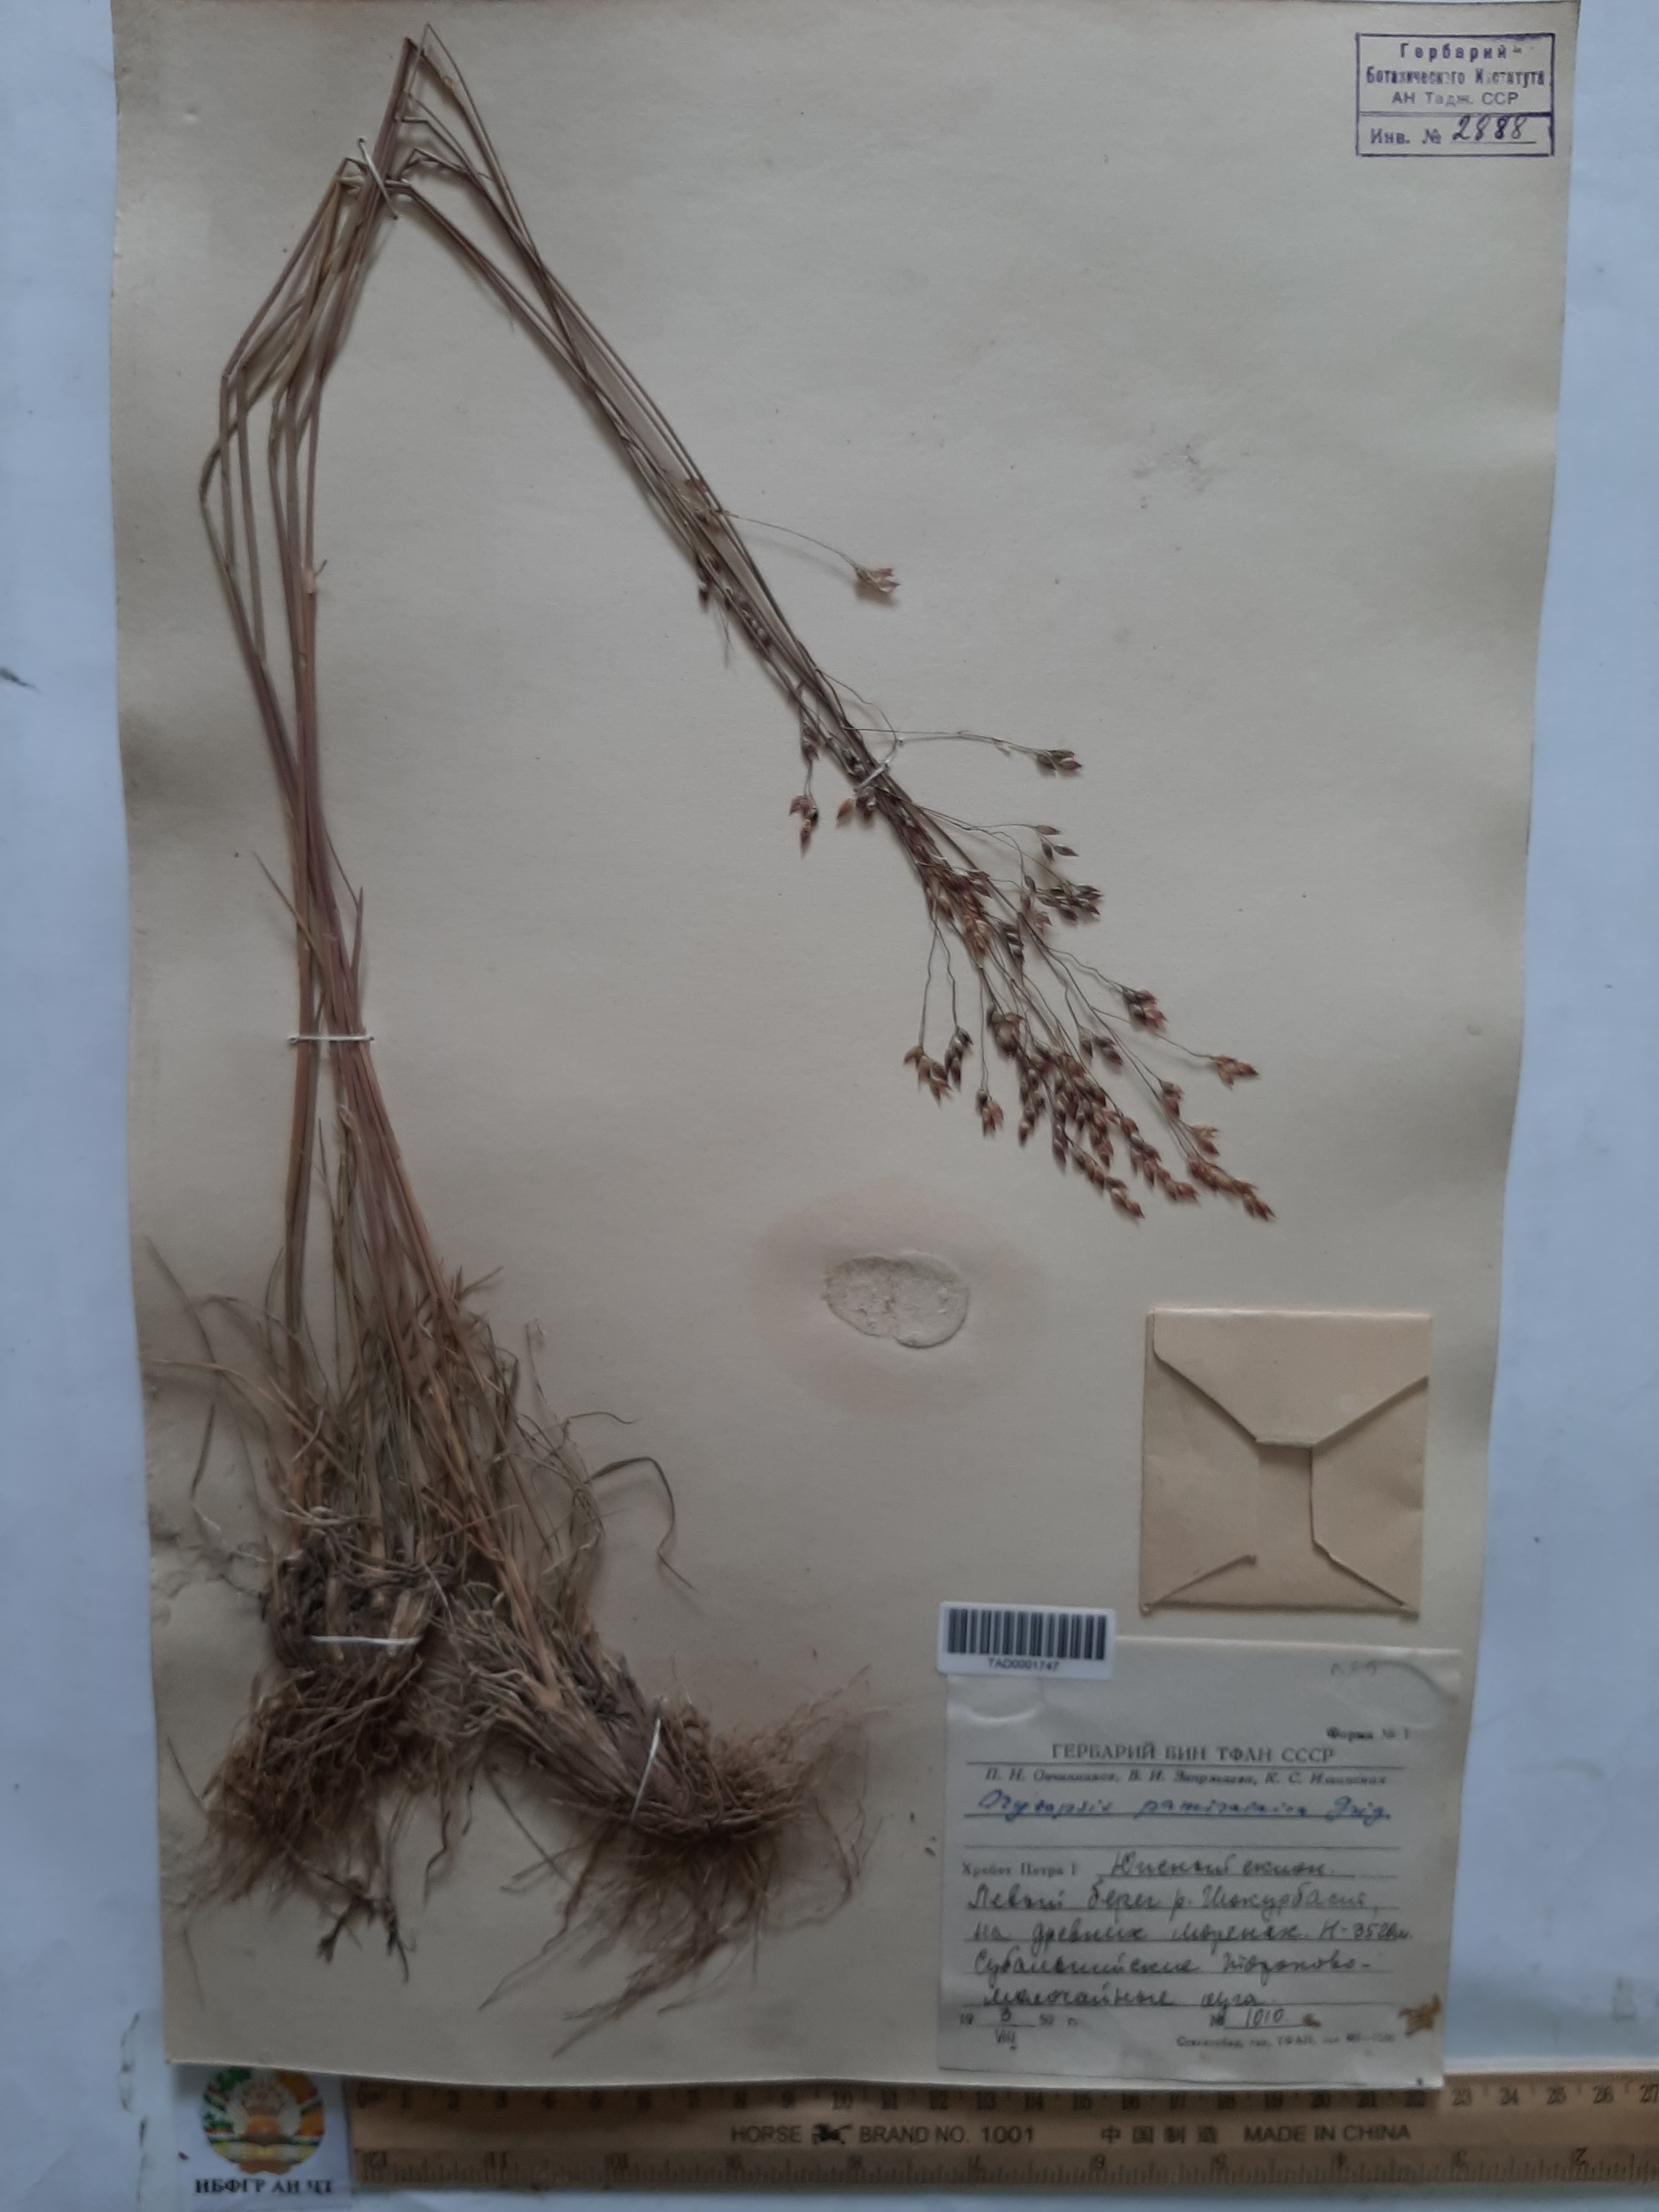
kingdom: Plantae
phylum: Tracheophyta
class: Liliopsida
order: Poales
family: Poaceae
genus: Piptatherum
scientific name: Piptatherum pamiralaicum
